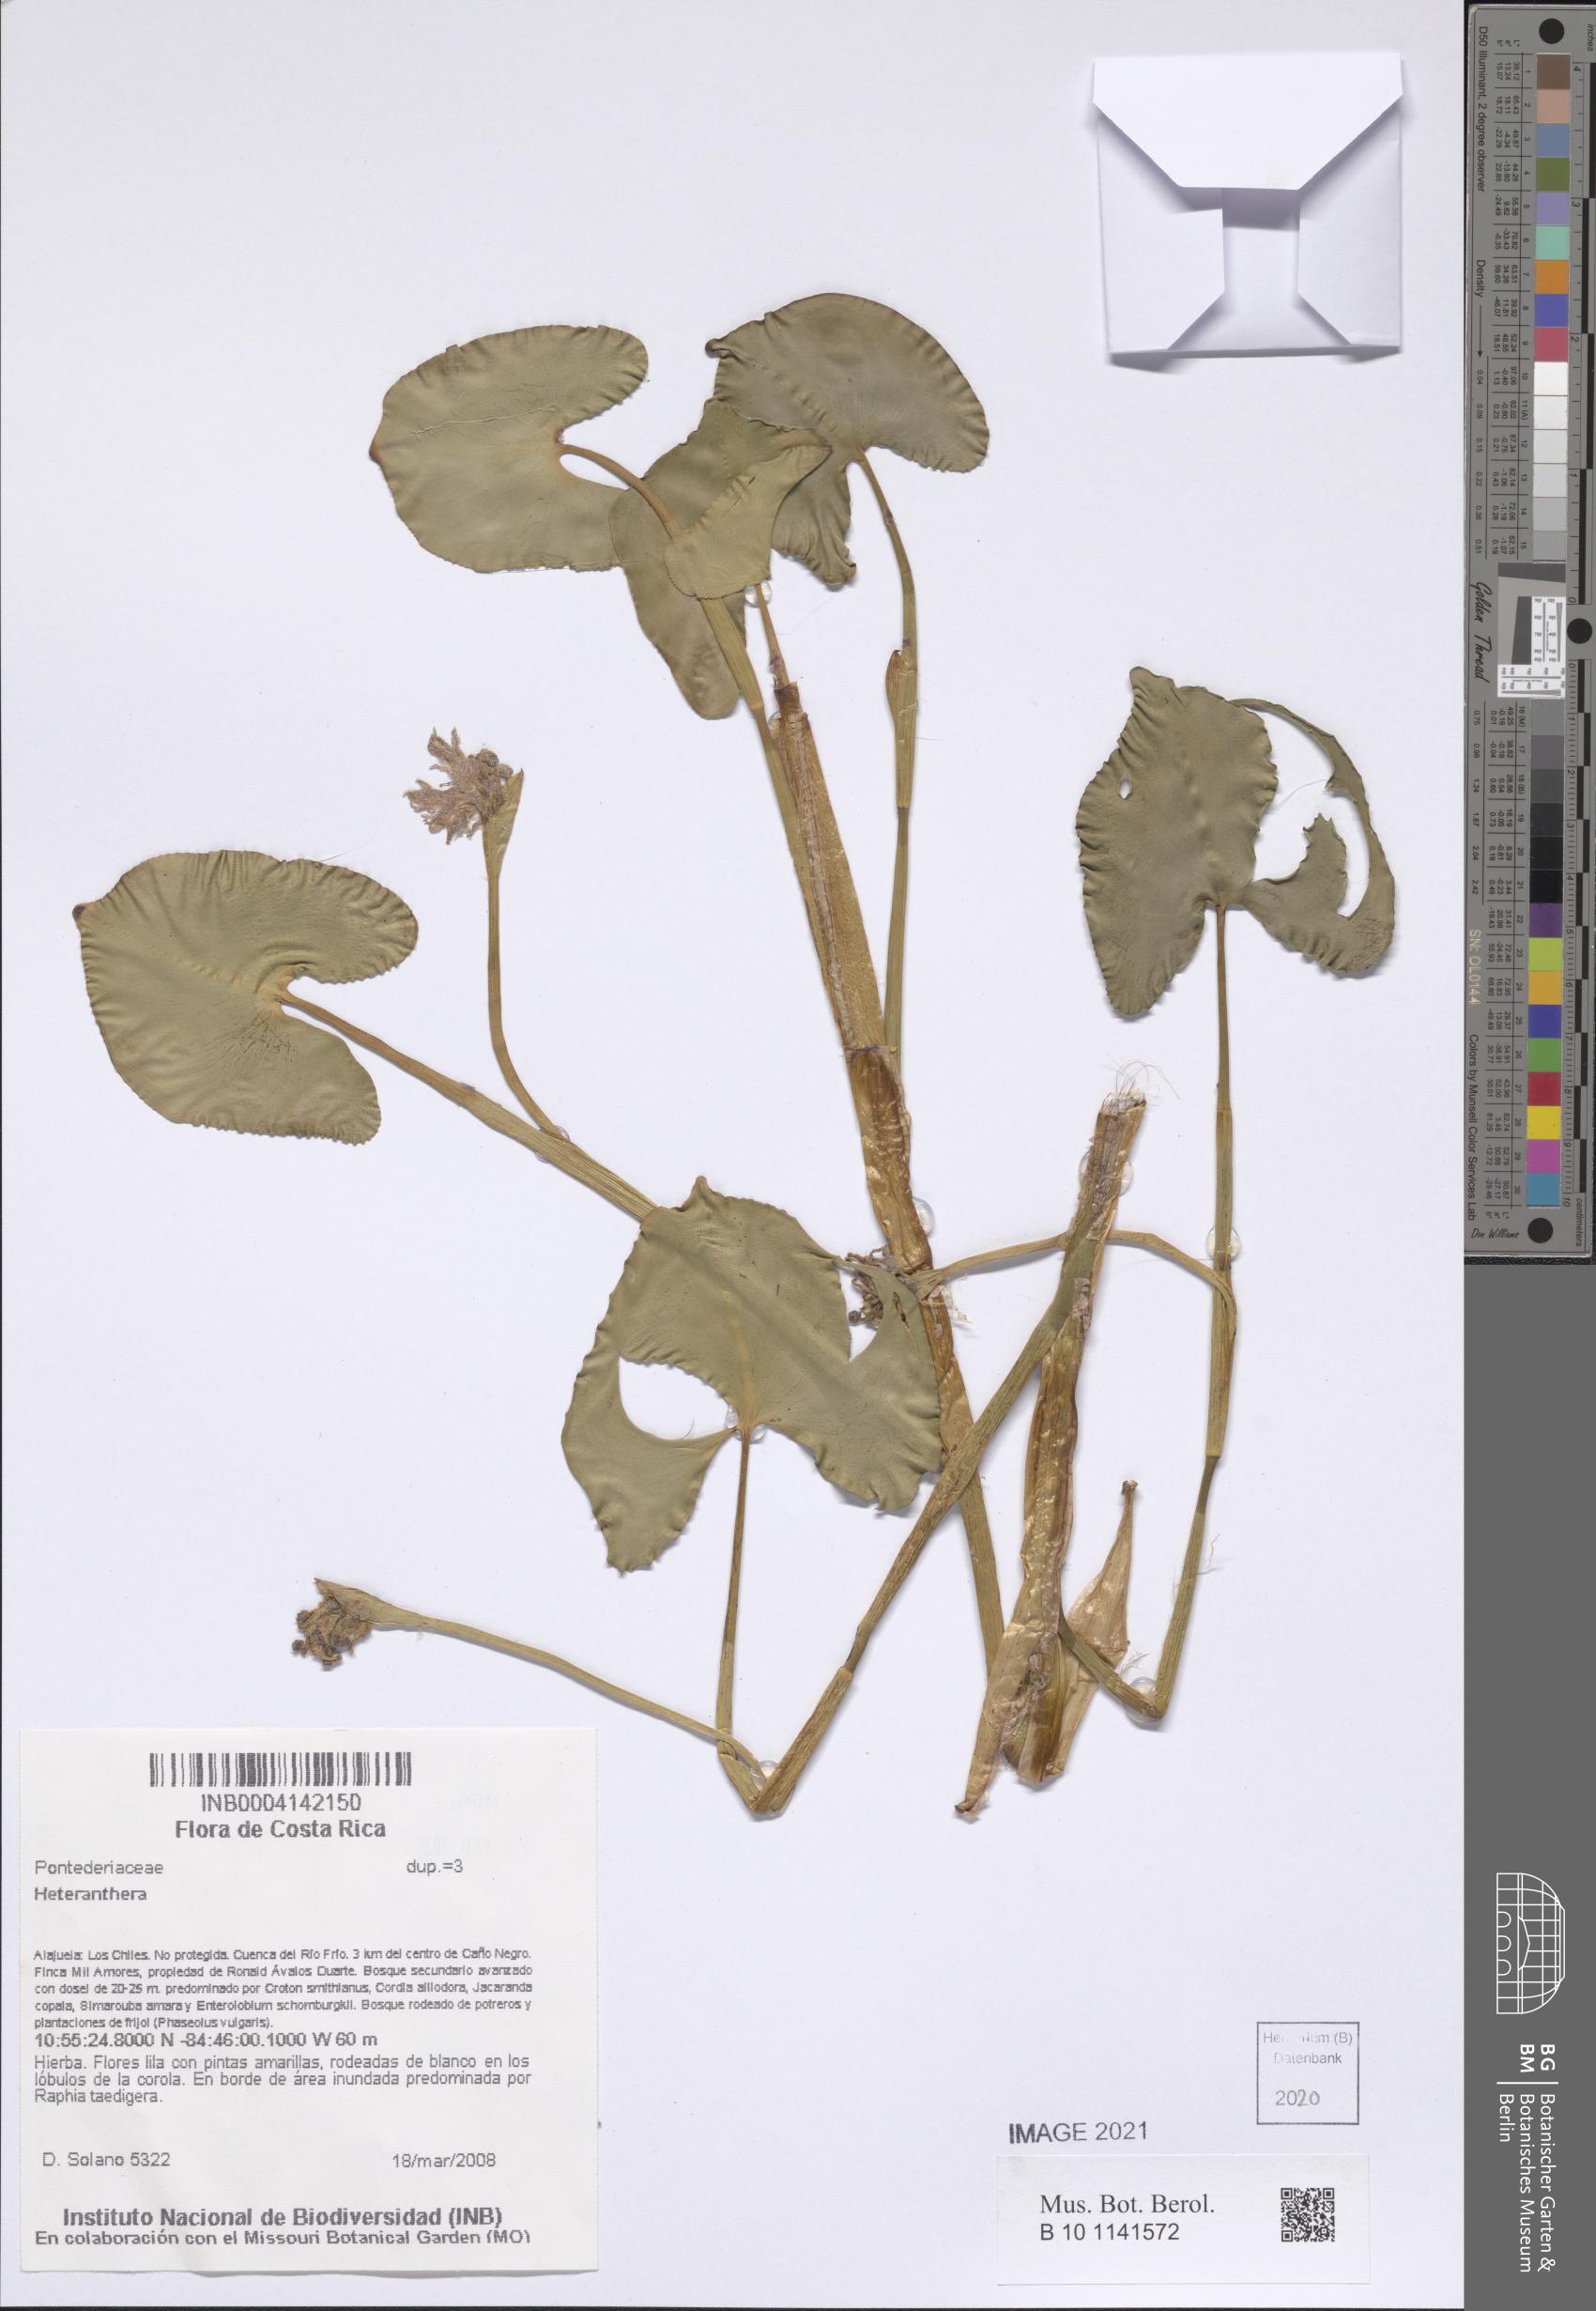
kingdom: Plantae
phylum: Tracheophyta
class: Liliopsida
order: Commelinales
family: Pontederiaceae
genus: Heteranthera
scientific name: Heteranthera
